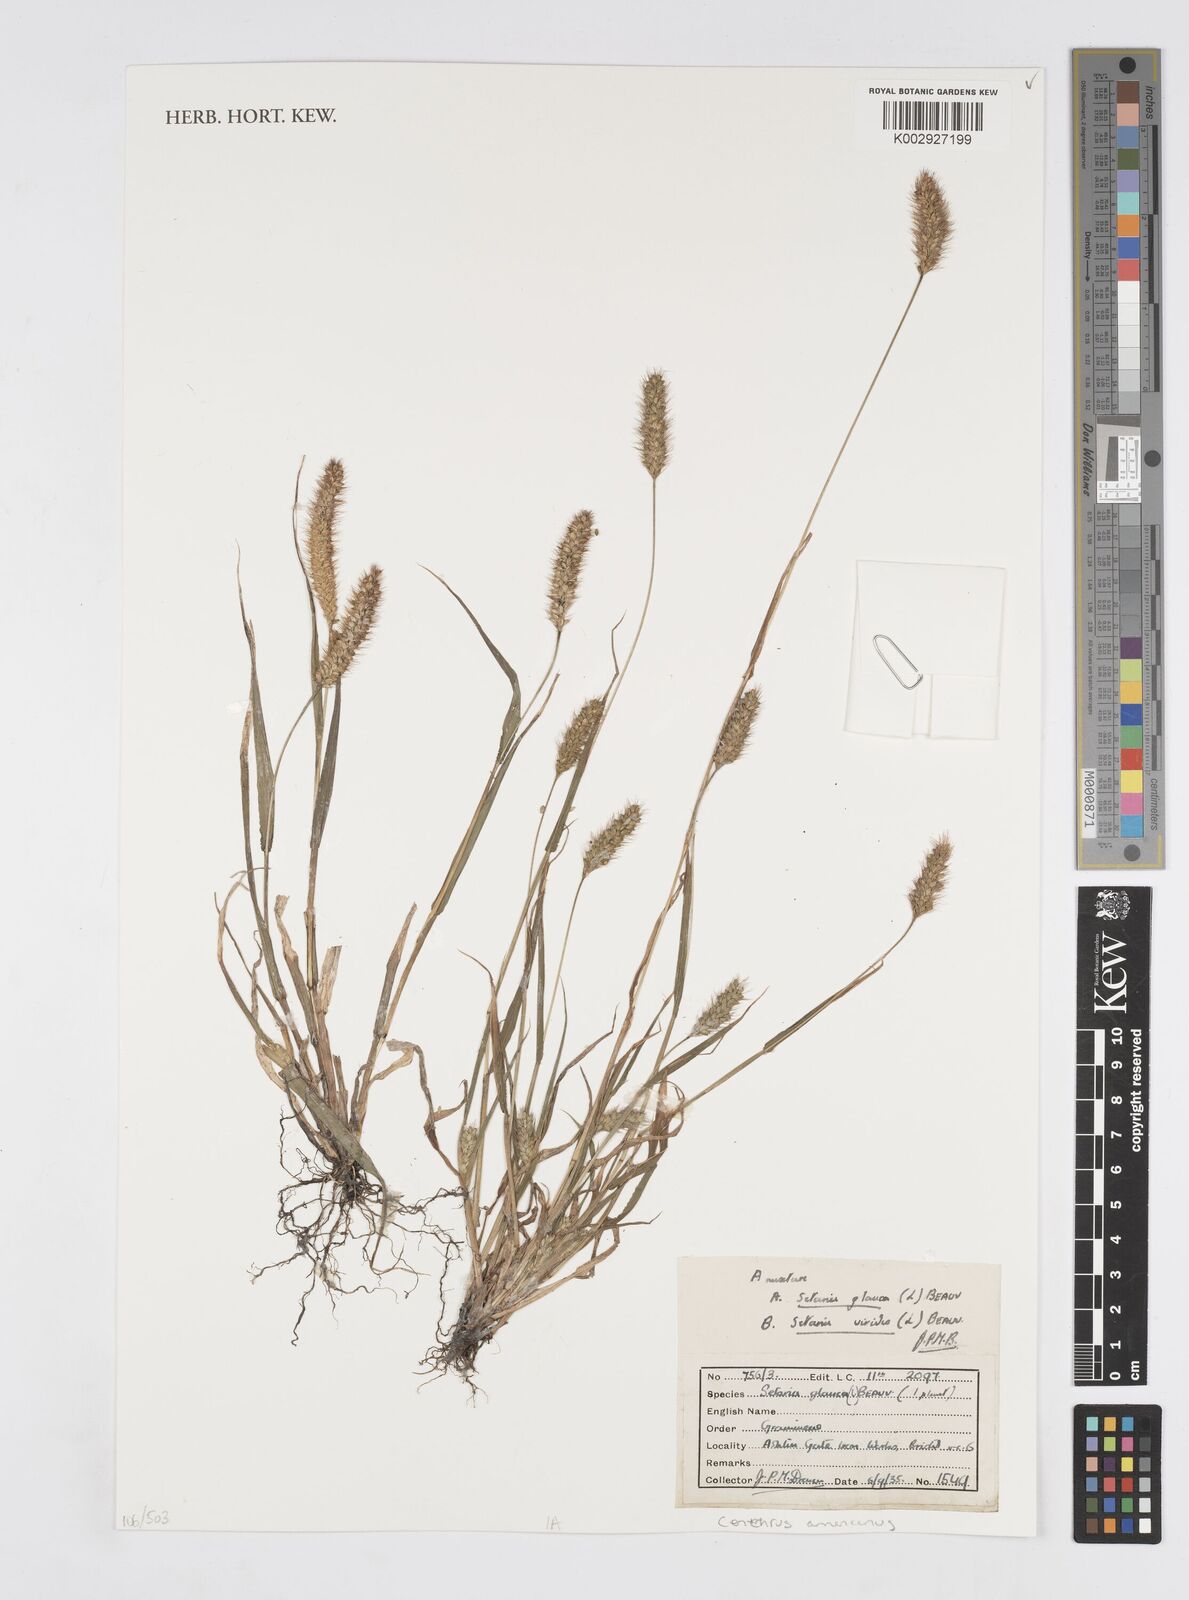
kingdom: Plantae
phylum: Tracheophyta
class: Liliopsida
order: Poales
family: Poaceae
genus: Cenchrus
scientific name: Cenchrus
